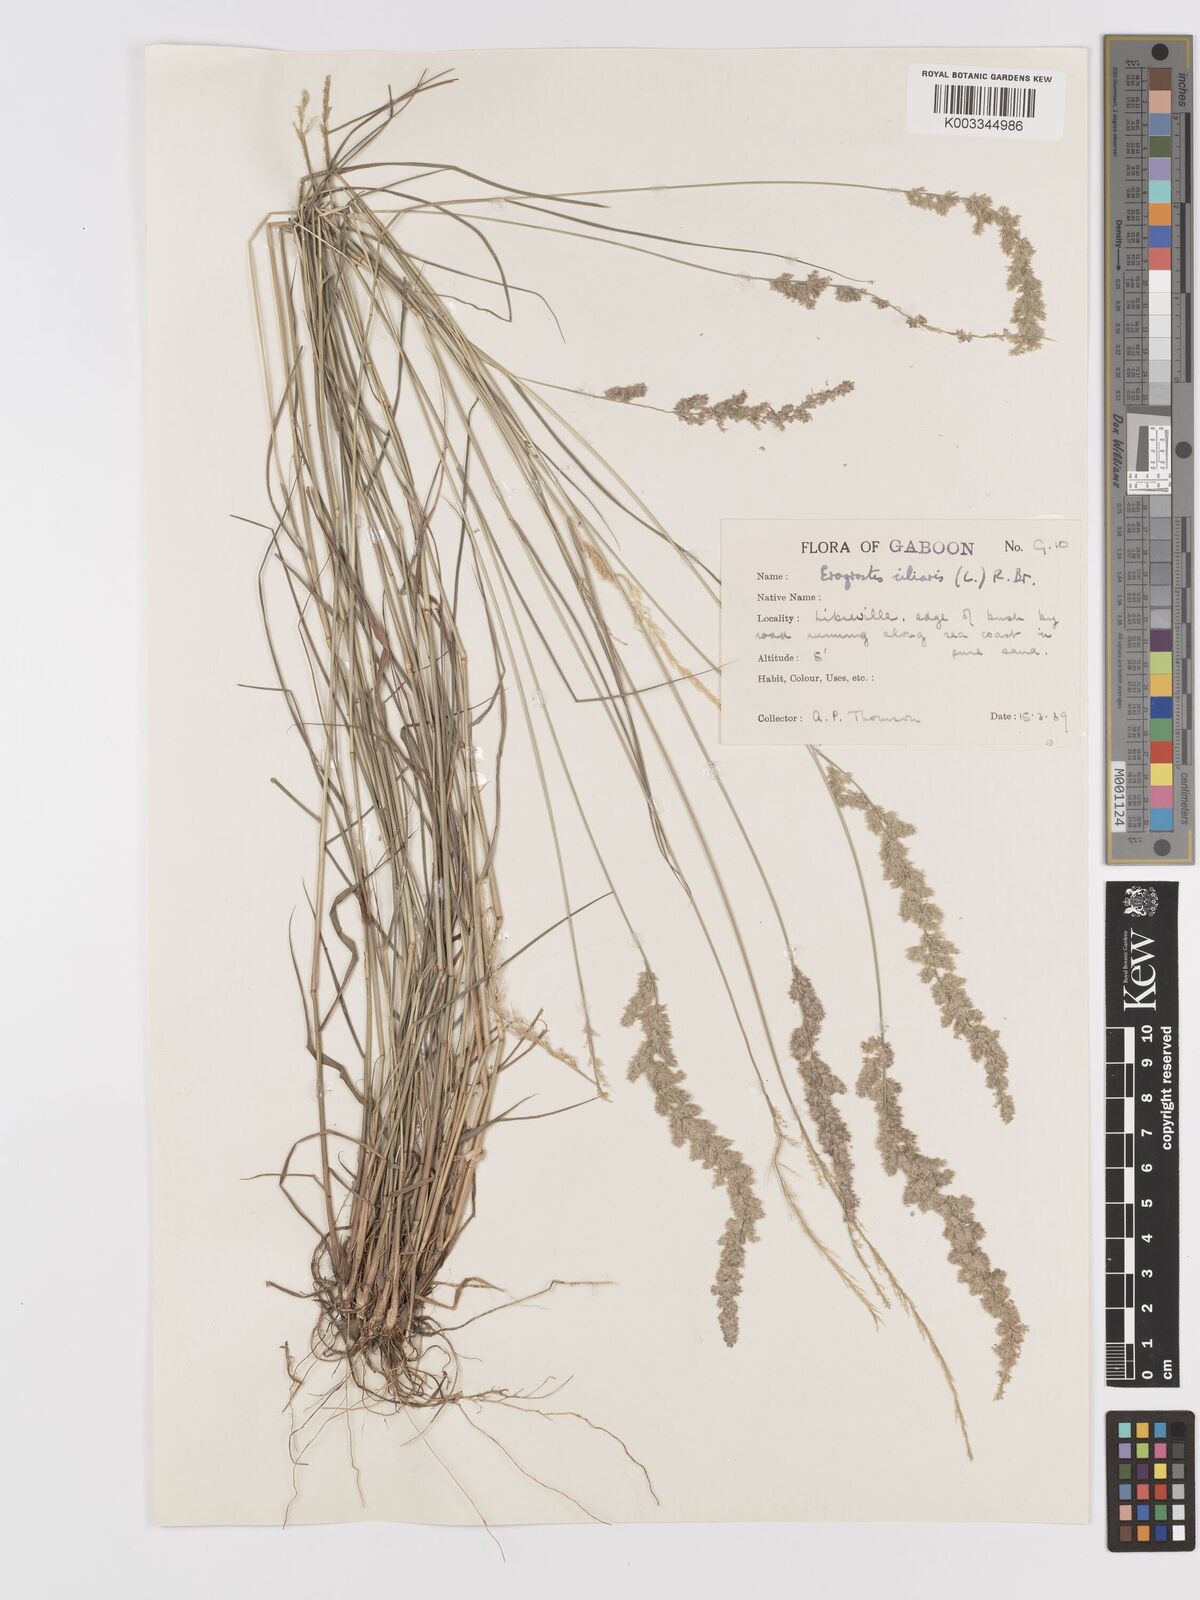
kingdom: Plantae
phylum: Tracheophyta
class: Liliopsida
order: Poales
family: Poaceae
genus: Eragrostis
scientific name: Eragrostis ciliaris
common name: Gophertail lovegrass
